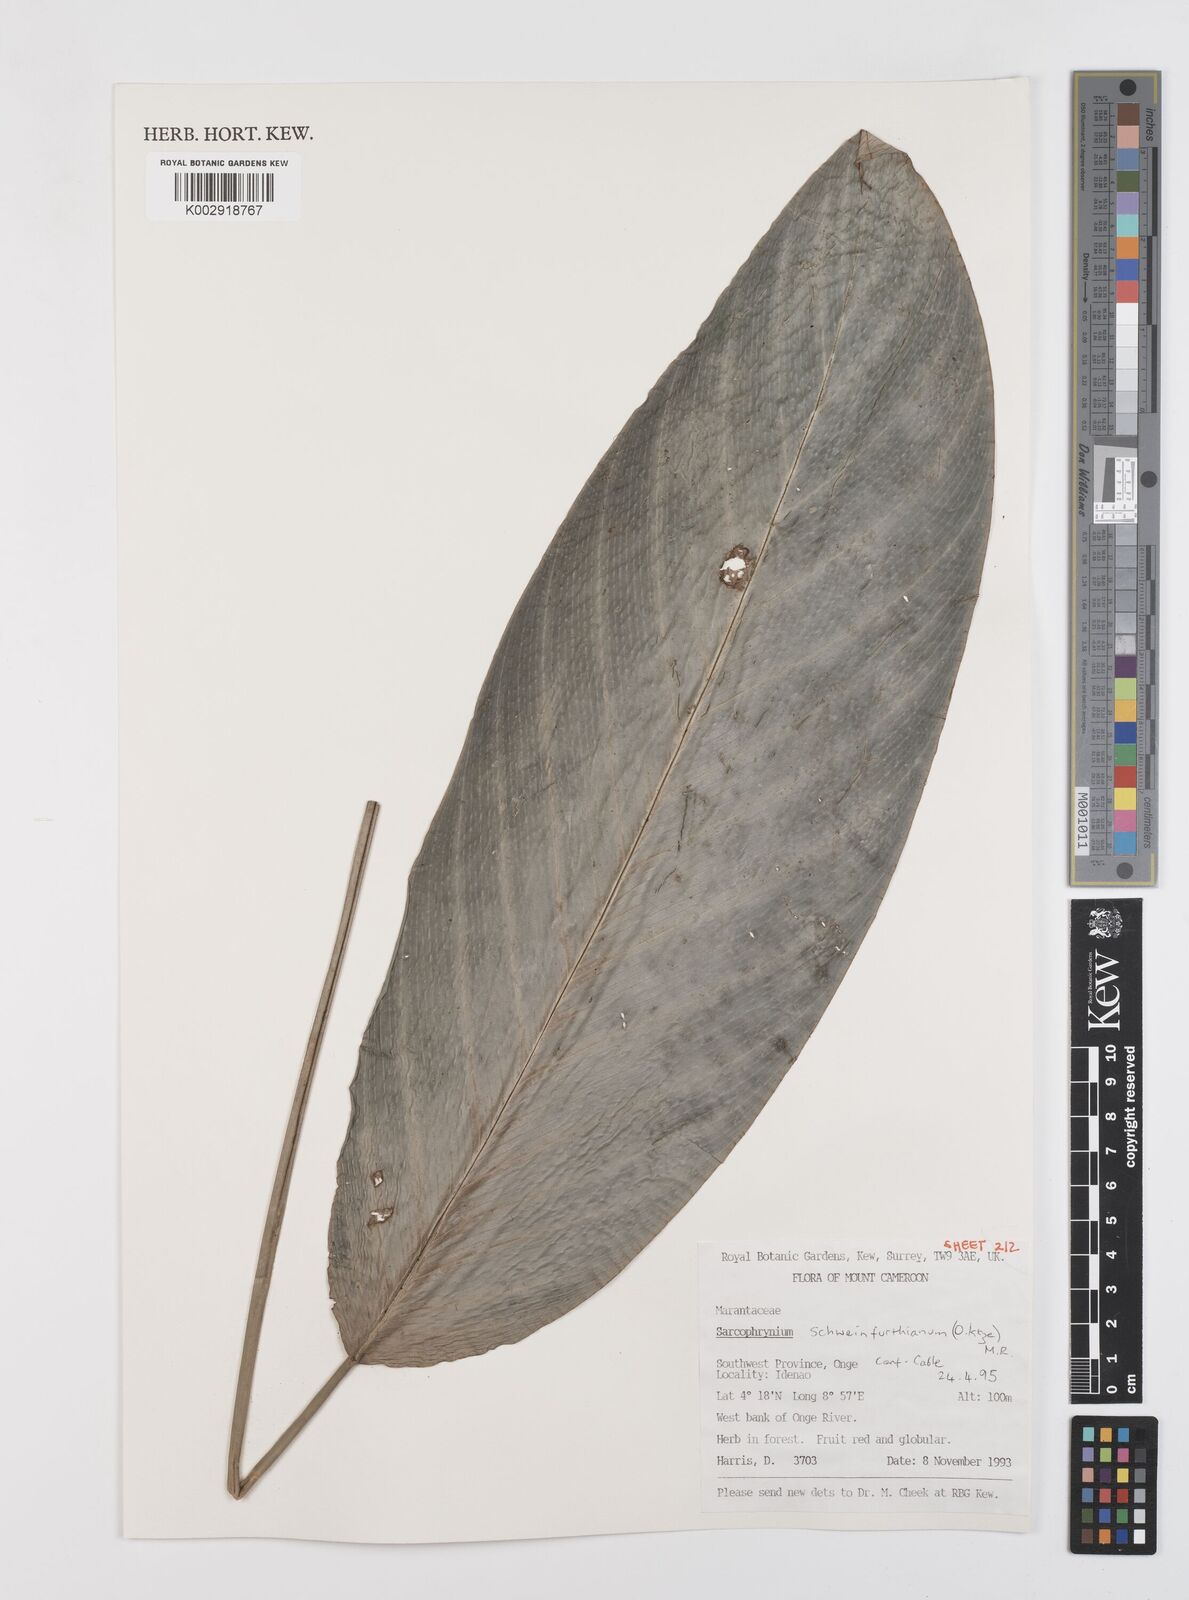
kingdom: Plantae
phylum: Tracheophyta
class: Liliopsida
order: Zingiberales
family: Marantaceae
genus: Sarcophrynium
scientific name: Sarcophrynium schweinfurthianum
